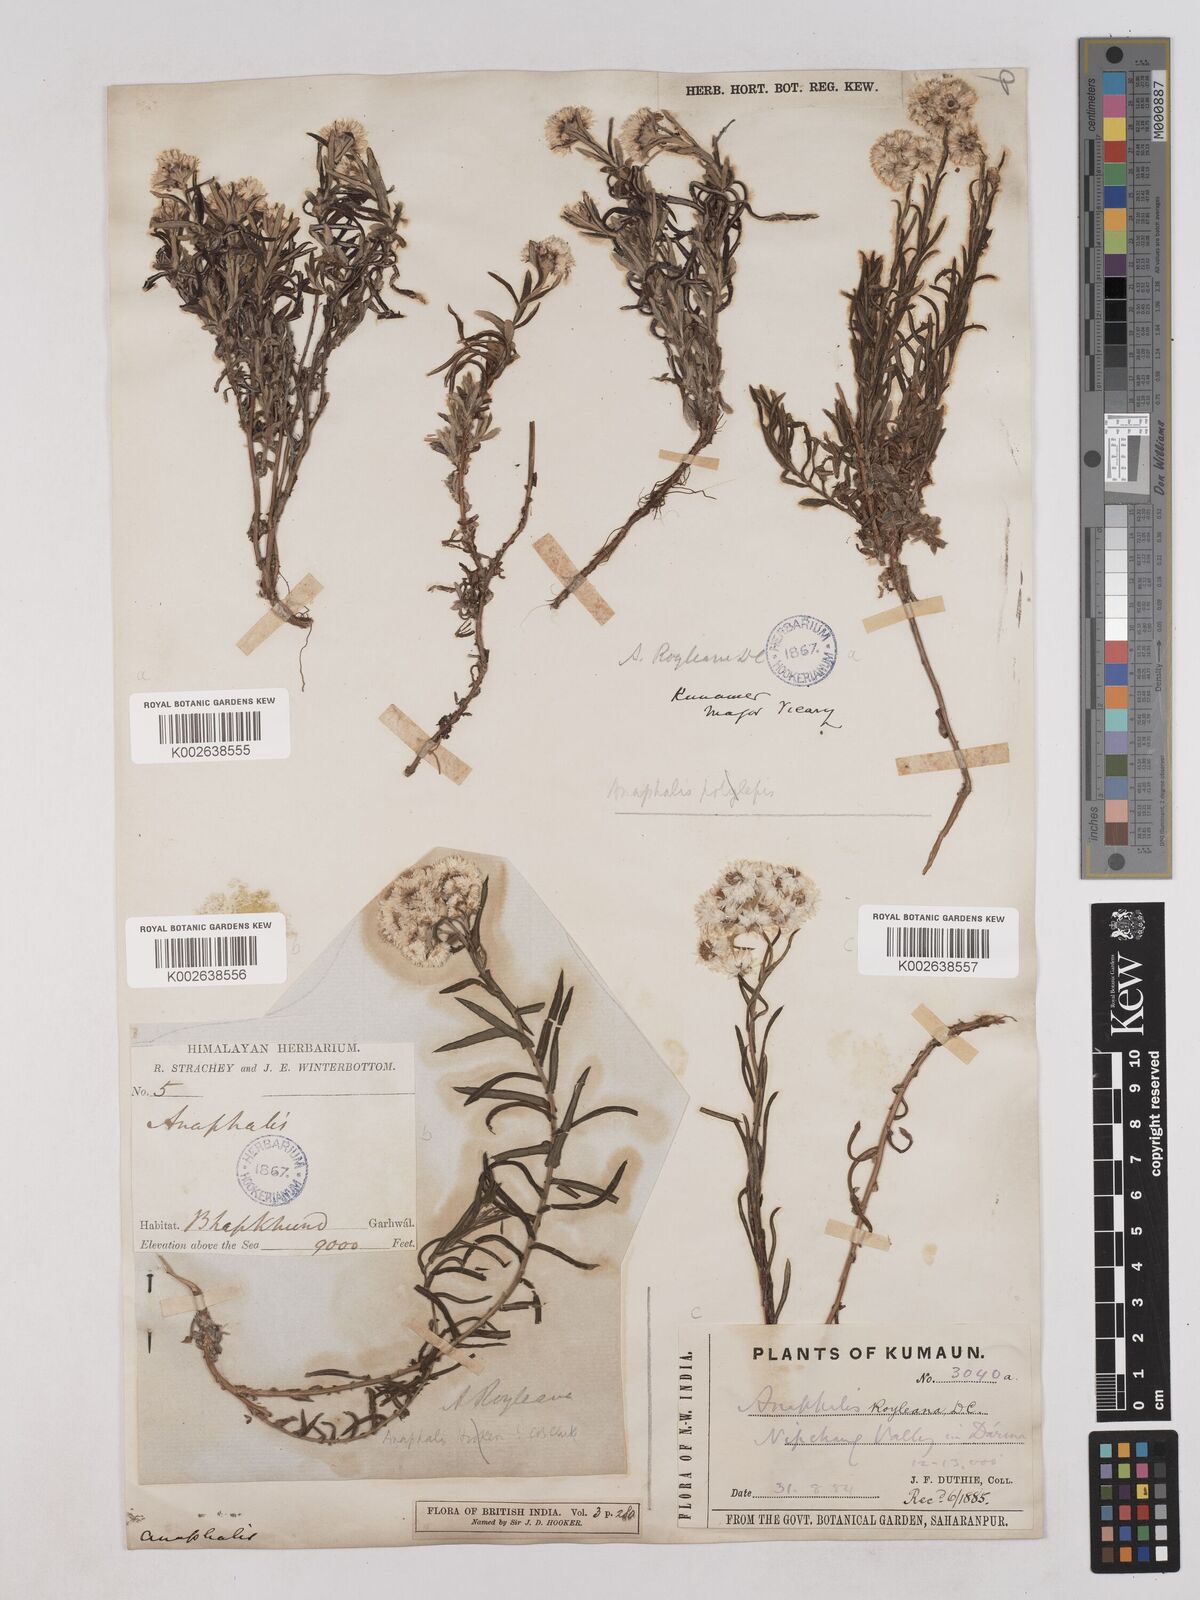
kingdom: Plantae
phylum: Tracheophyta
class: Magnoliopsida
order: Asterales
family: Asteraceae
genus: Anaphalis
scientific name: Anaphalis royleana
